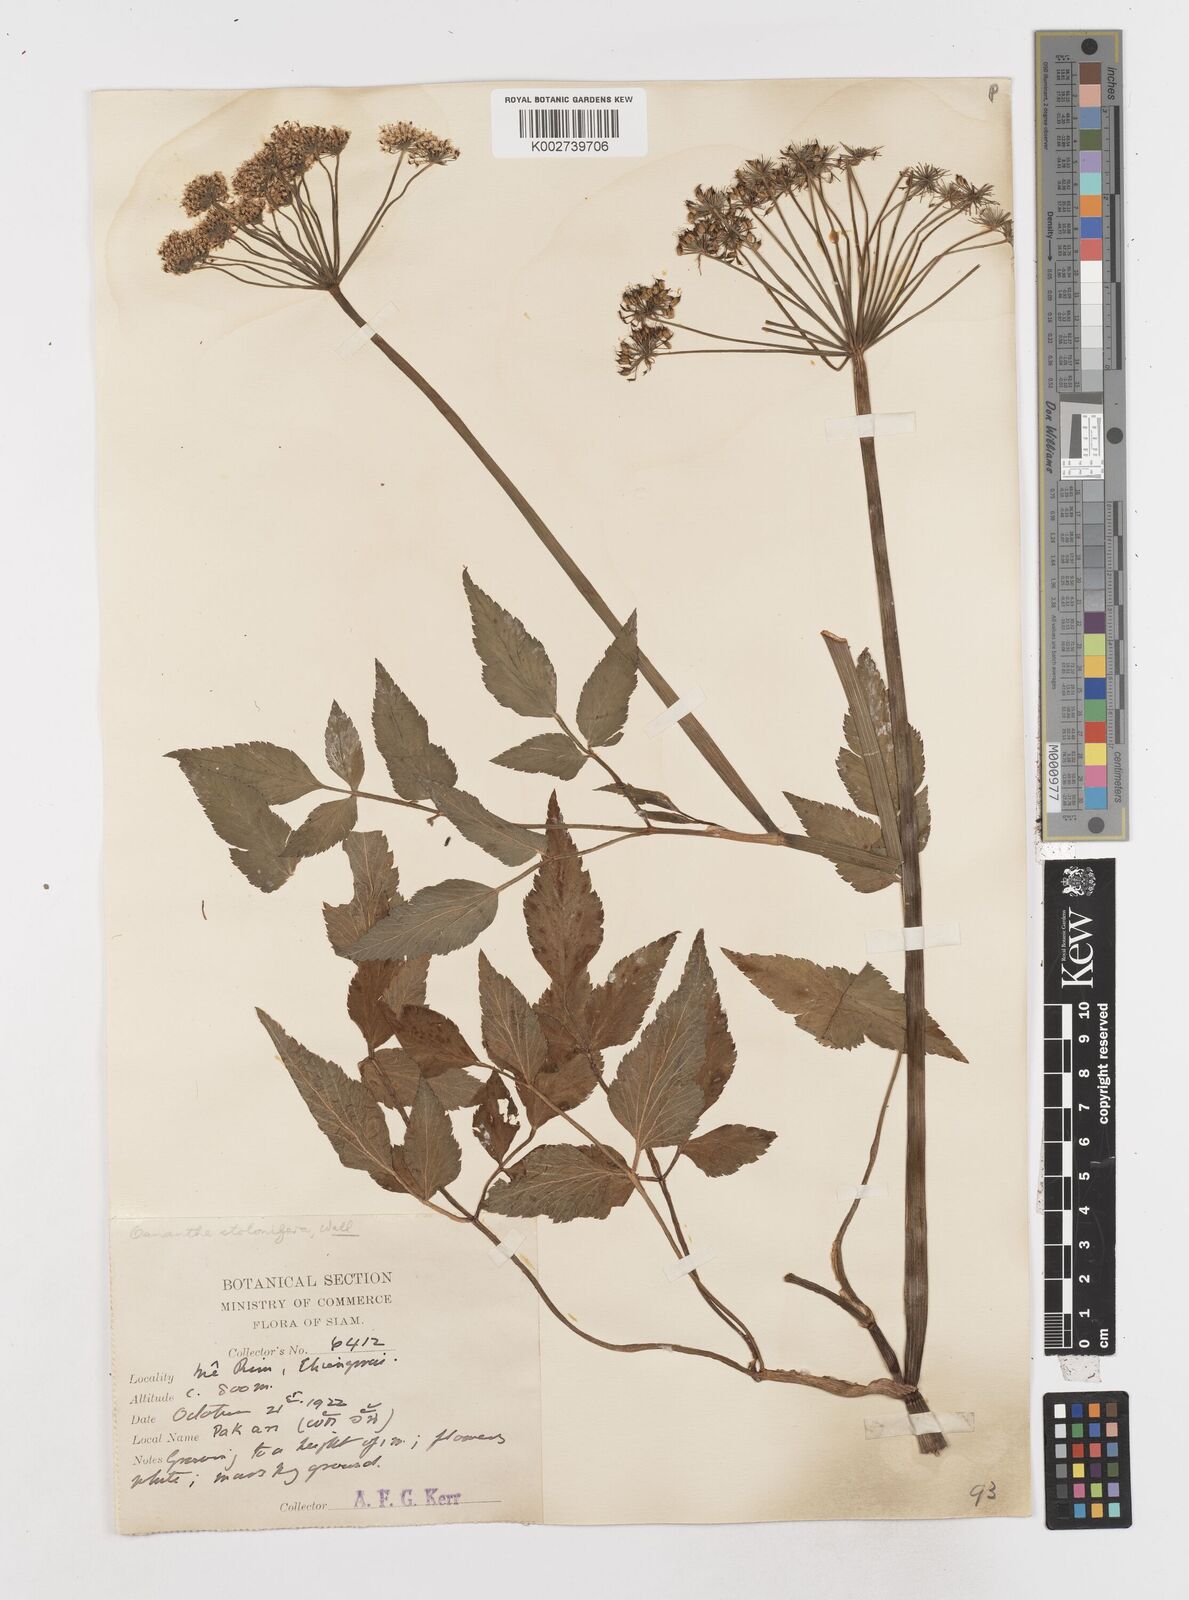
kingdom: Plantae
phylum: Tracheophyta
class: Magnoliopsida
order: Apiales
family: Apiaceae
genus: Oenanthe
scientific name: Oenanthe javanica
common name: Java water-dropwort
